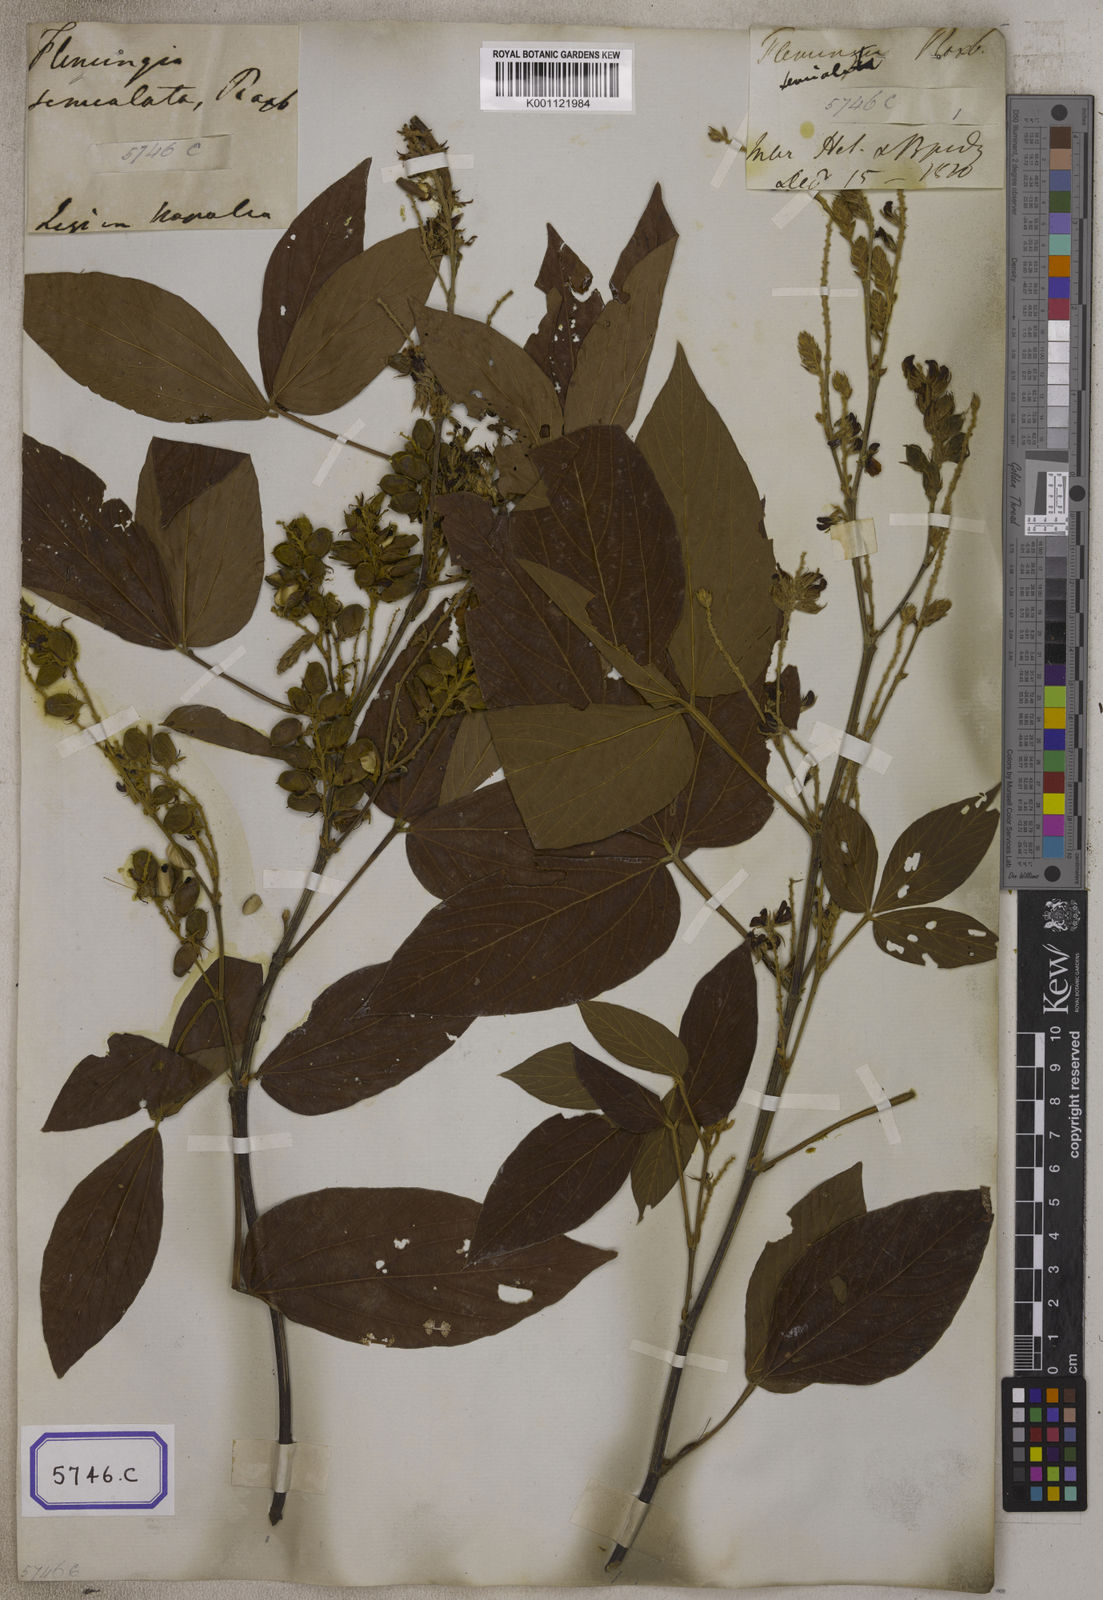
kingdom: Plantae
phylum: Tracheophyta
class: Magnoliopsida
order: Fabales
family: Fabaceae
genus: Flemingia
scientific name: Flemingia
